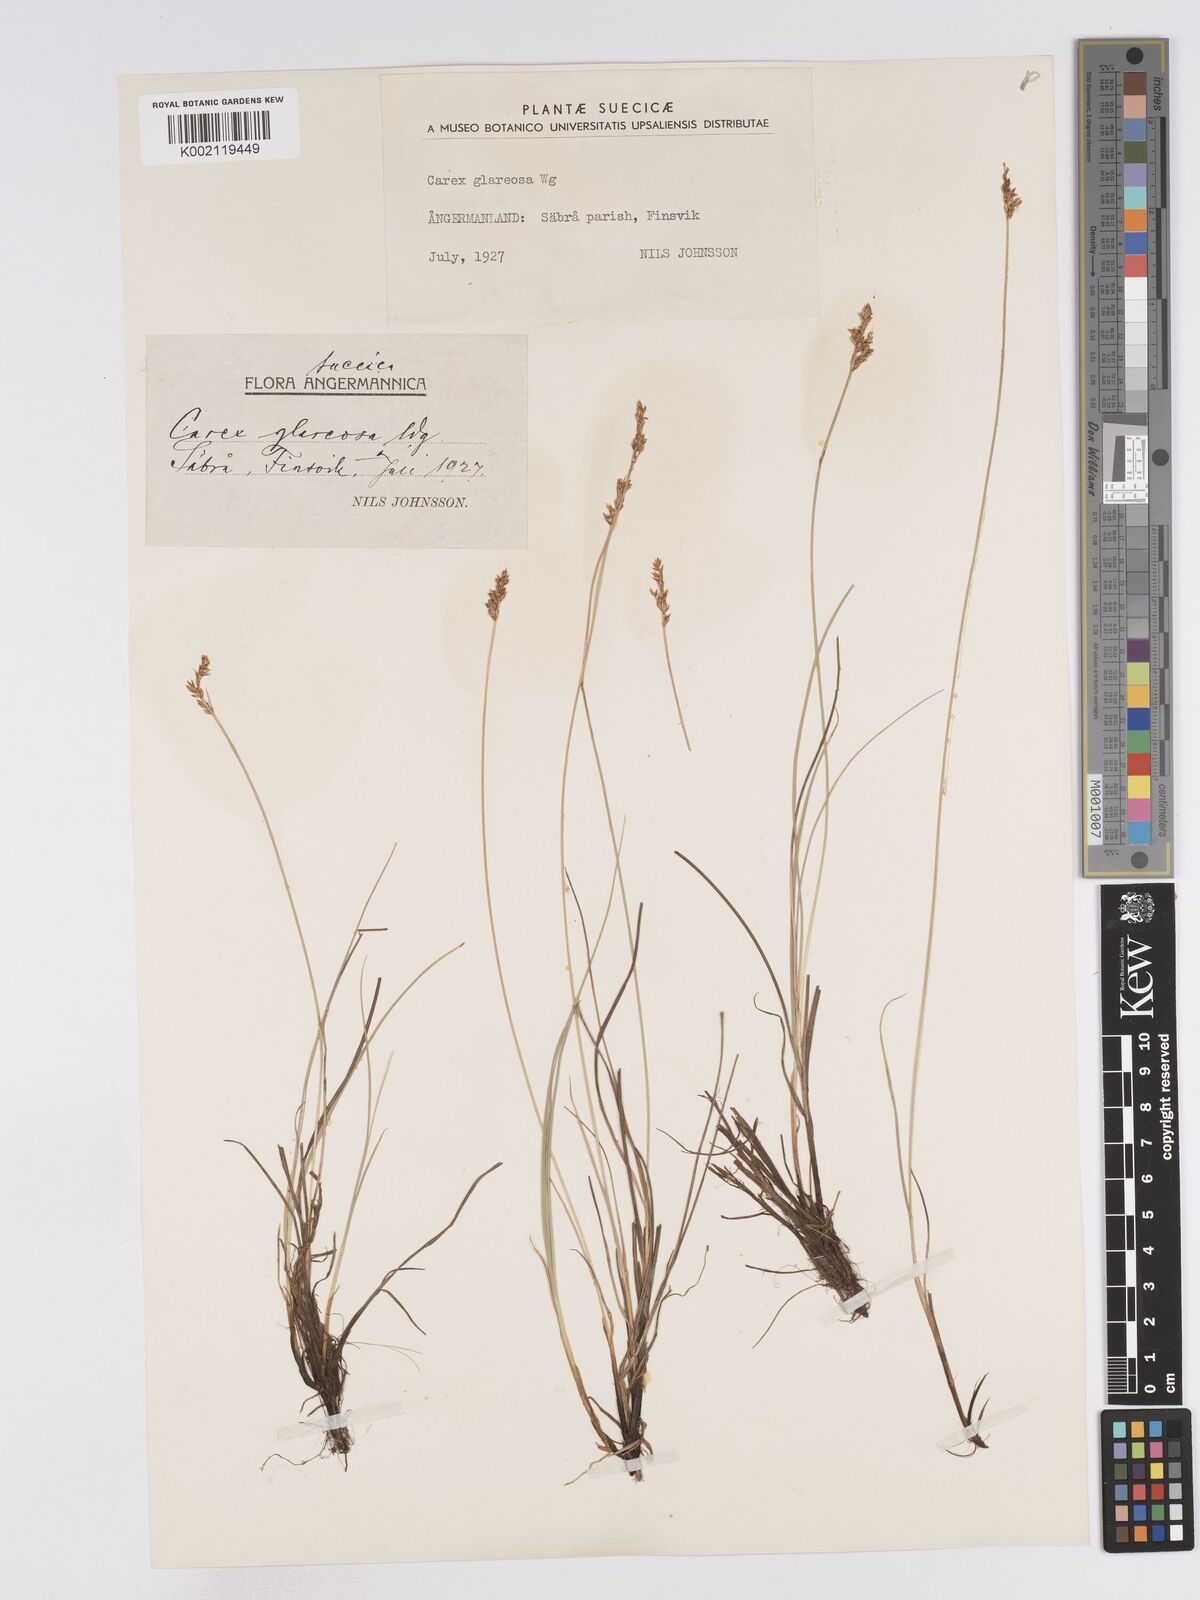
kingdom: Plantae
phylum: Tracheophyta
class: Liliopsida
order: Poales
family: Cyperaceae
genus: Carex
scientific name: Carex glareosa
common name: Clustered sedge
